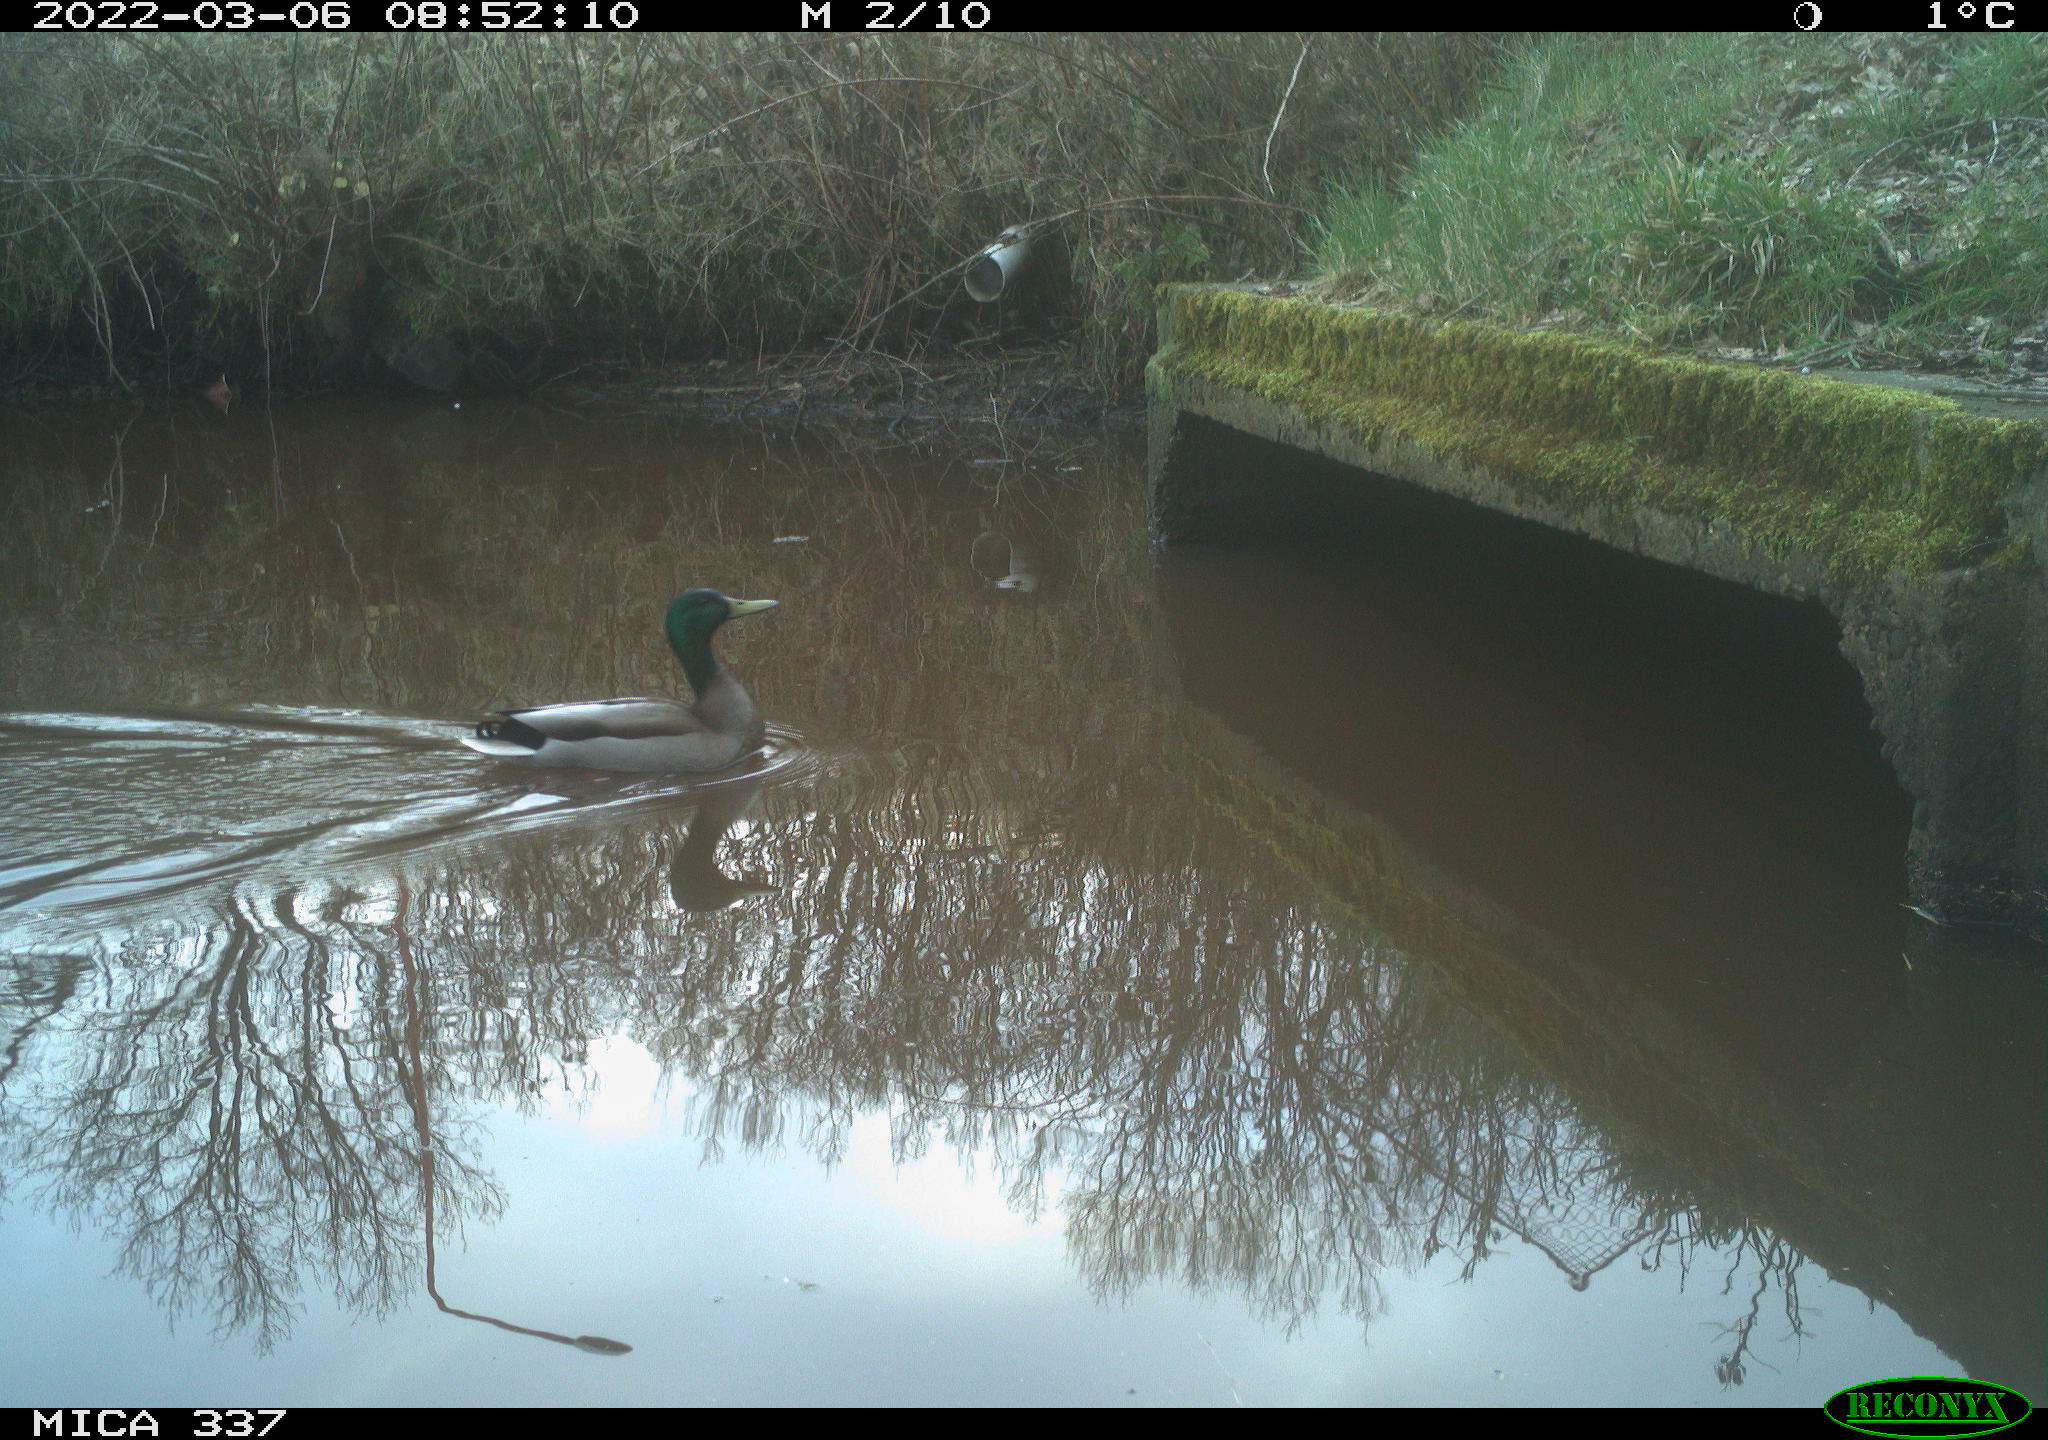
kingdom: Animalia
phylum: Chordata
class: Aves
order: Anseriformes
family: Anatidae
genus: Anas
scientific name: Anas platyrhynchos
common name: Mallard
